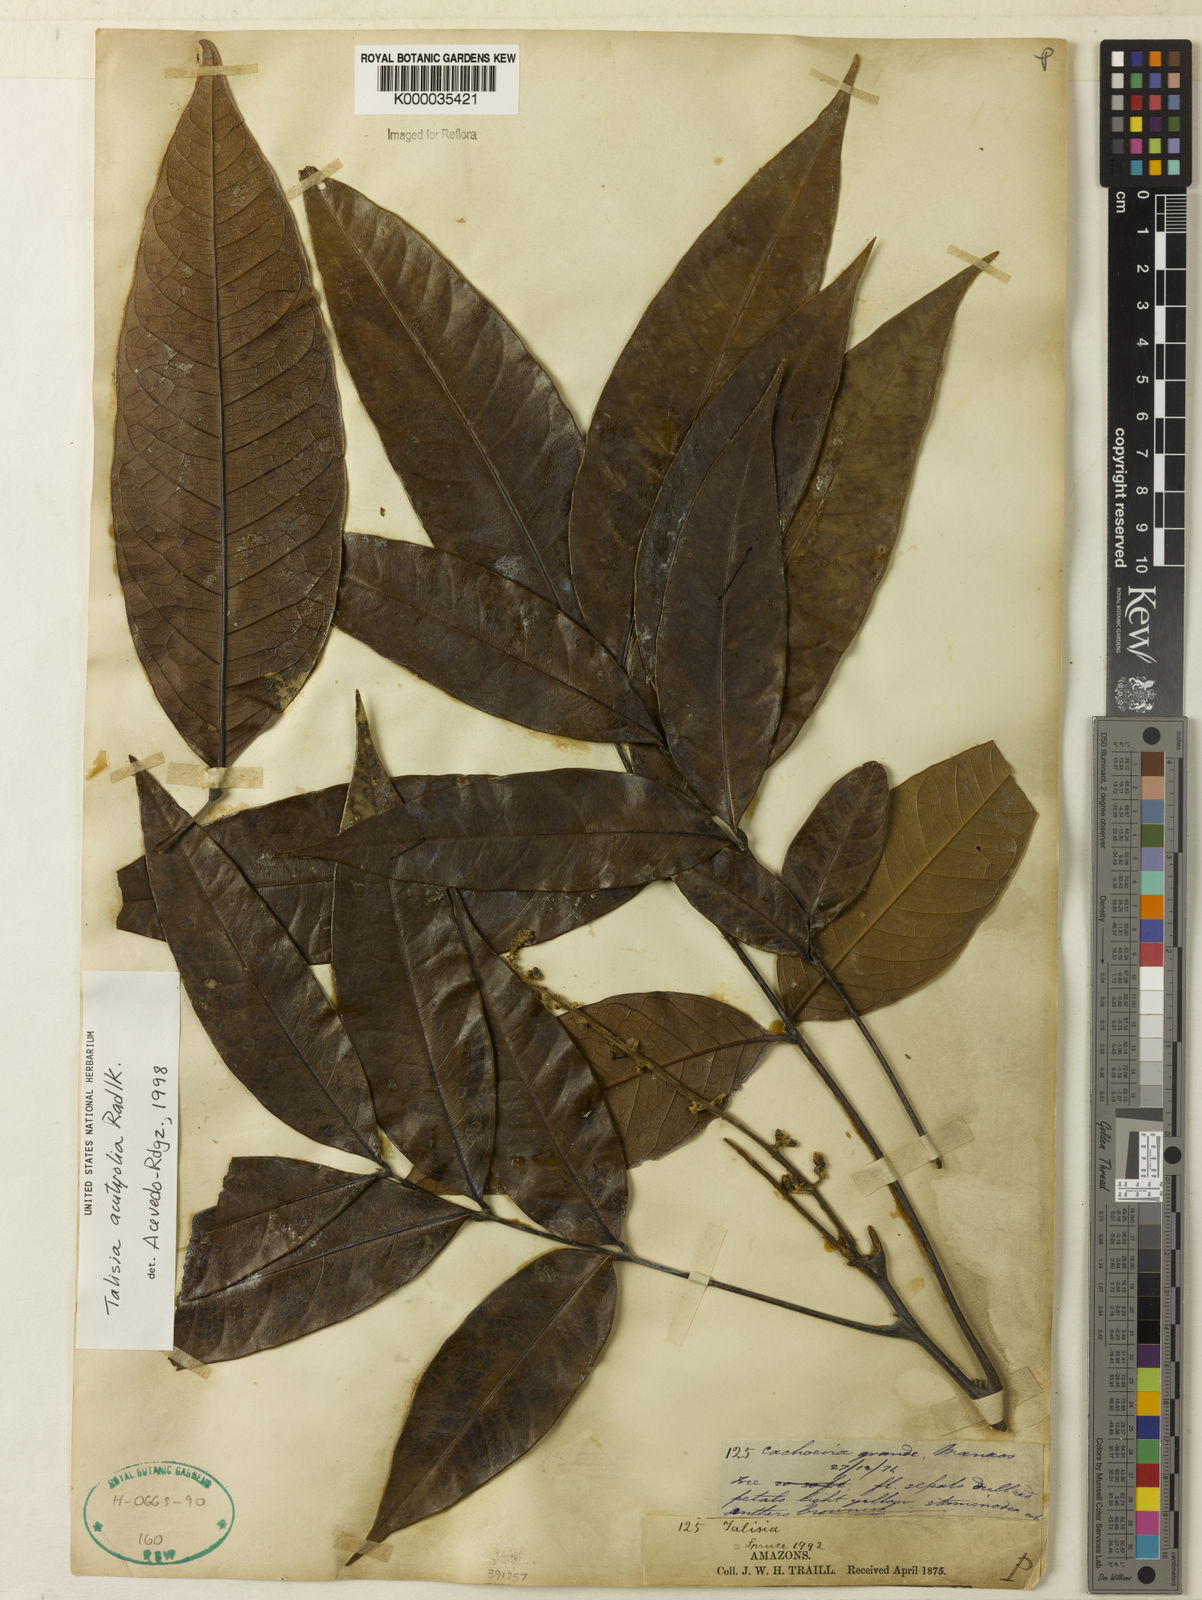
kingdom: Plantae
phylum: Tracheophyta
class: Magnoliopsida
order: Sapindales
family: Sapindaceae
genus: Talisia
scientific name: Talisia acutifolia
